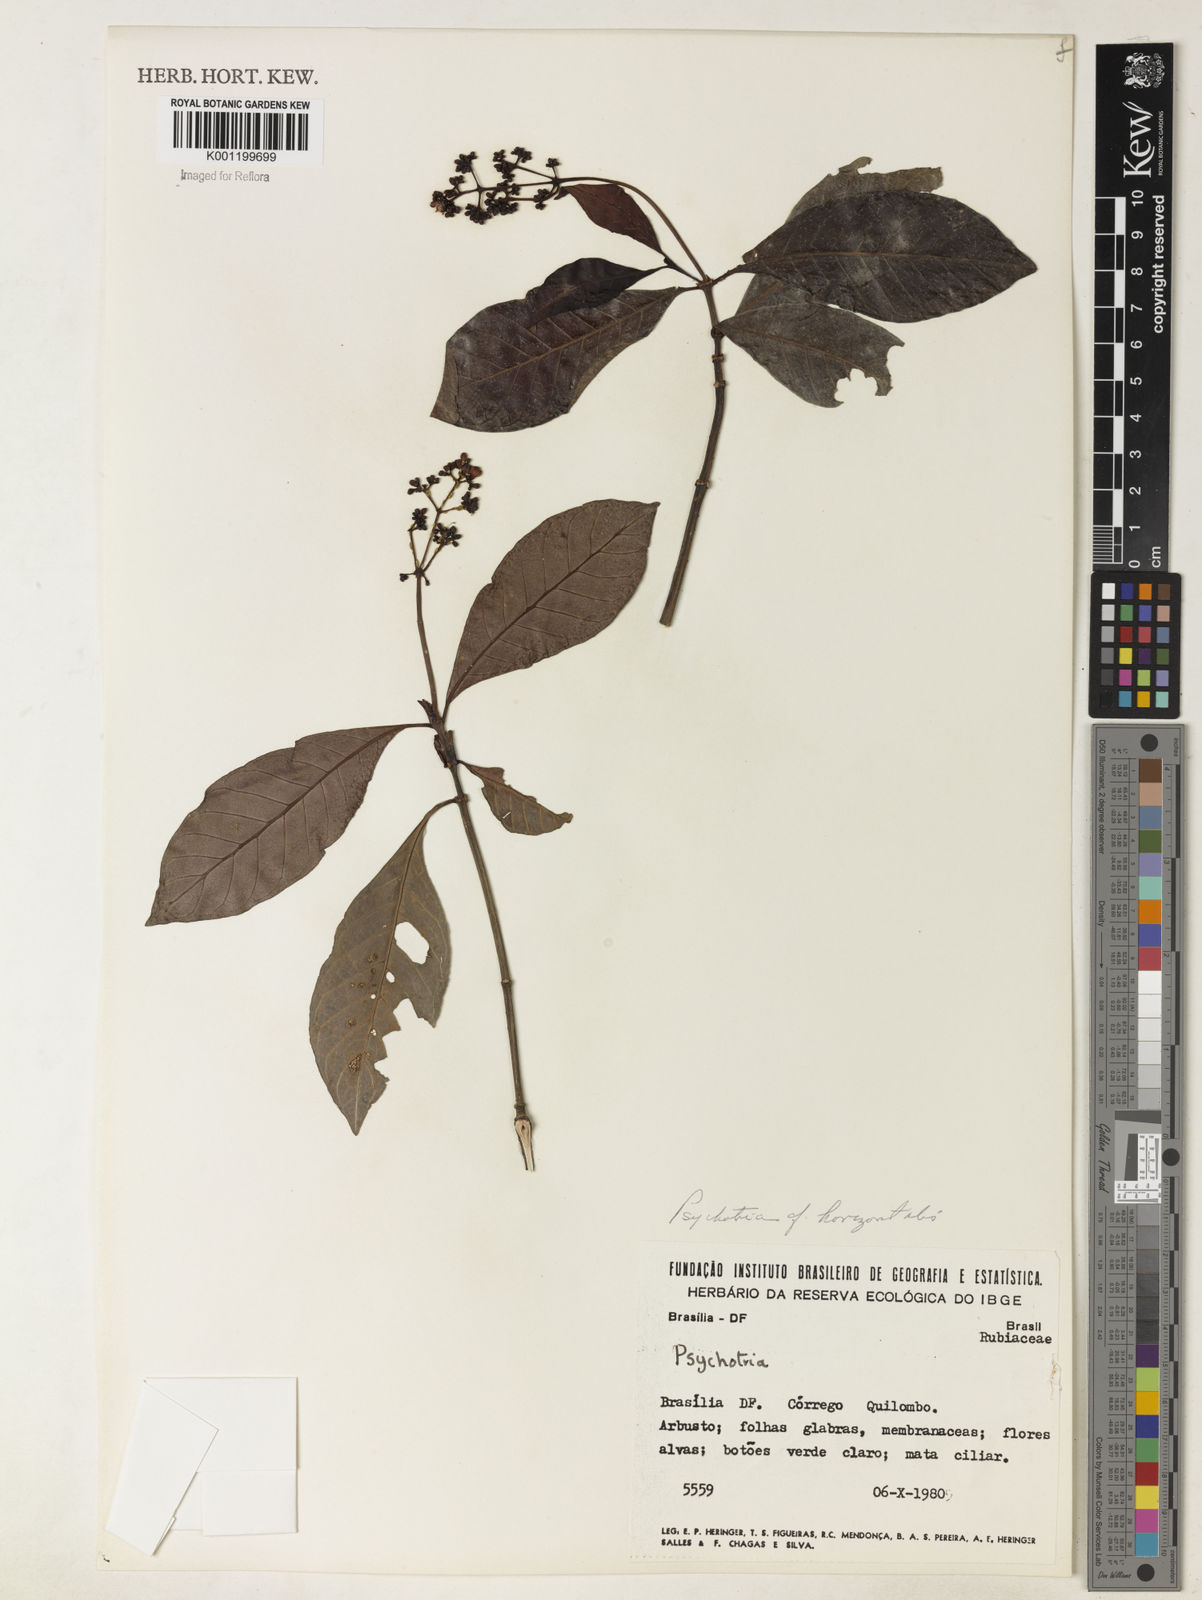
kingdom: Plantae
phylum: Tracheophyta
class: Magnoliopsida
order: Gentianales
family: Rubiaceae
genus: Psychotria
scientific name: Psychotria horizontalis
